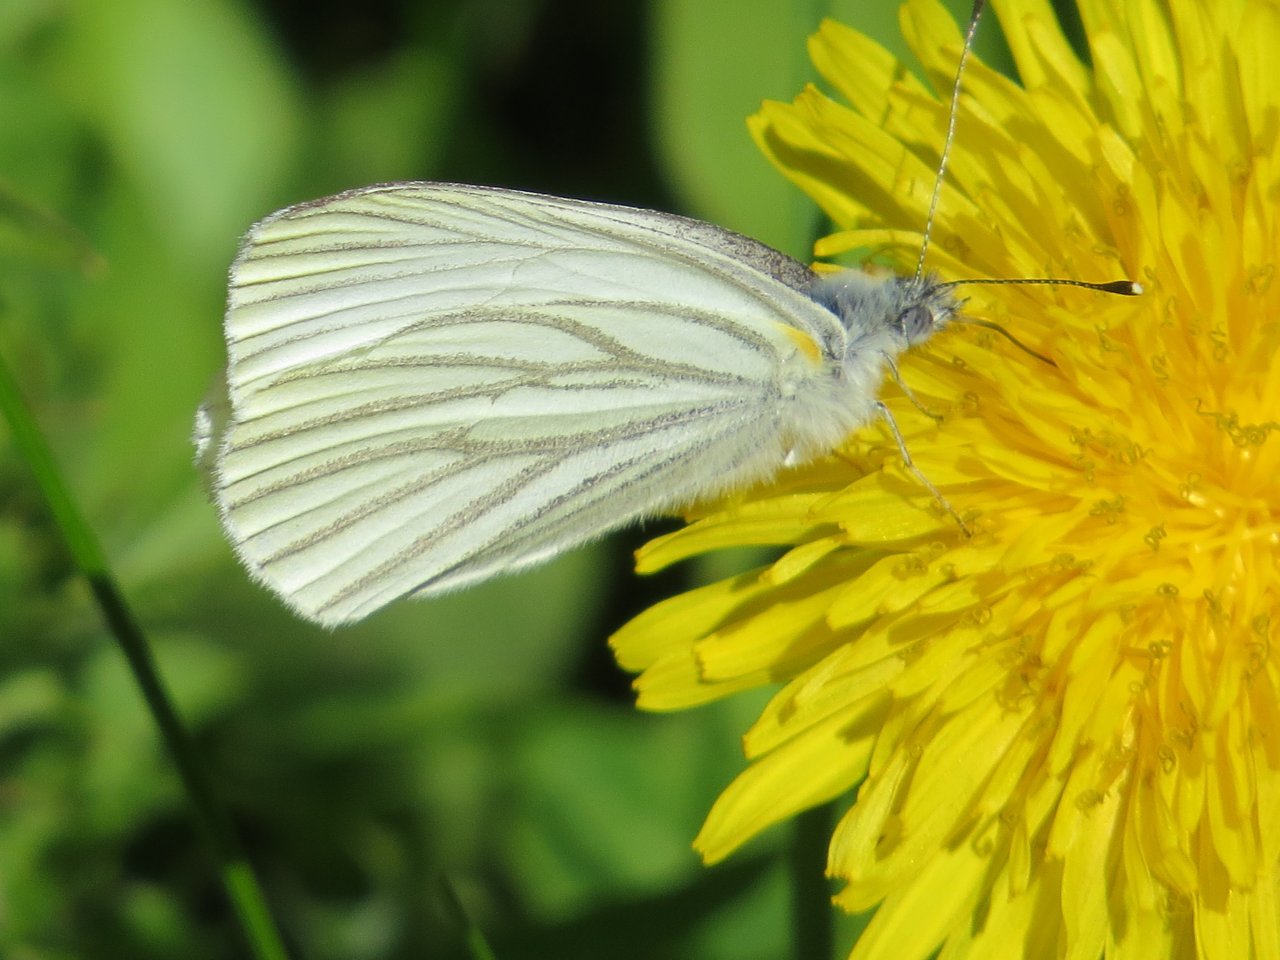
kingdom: Animalia
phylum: Arthropoda
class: Insecta
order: Lepidoptera
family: Pieridae
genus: Pieris
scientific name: Pieris oleracea
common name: Mustard White
